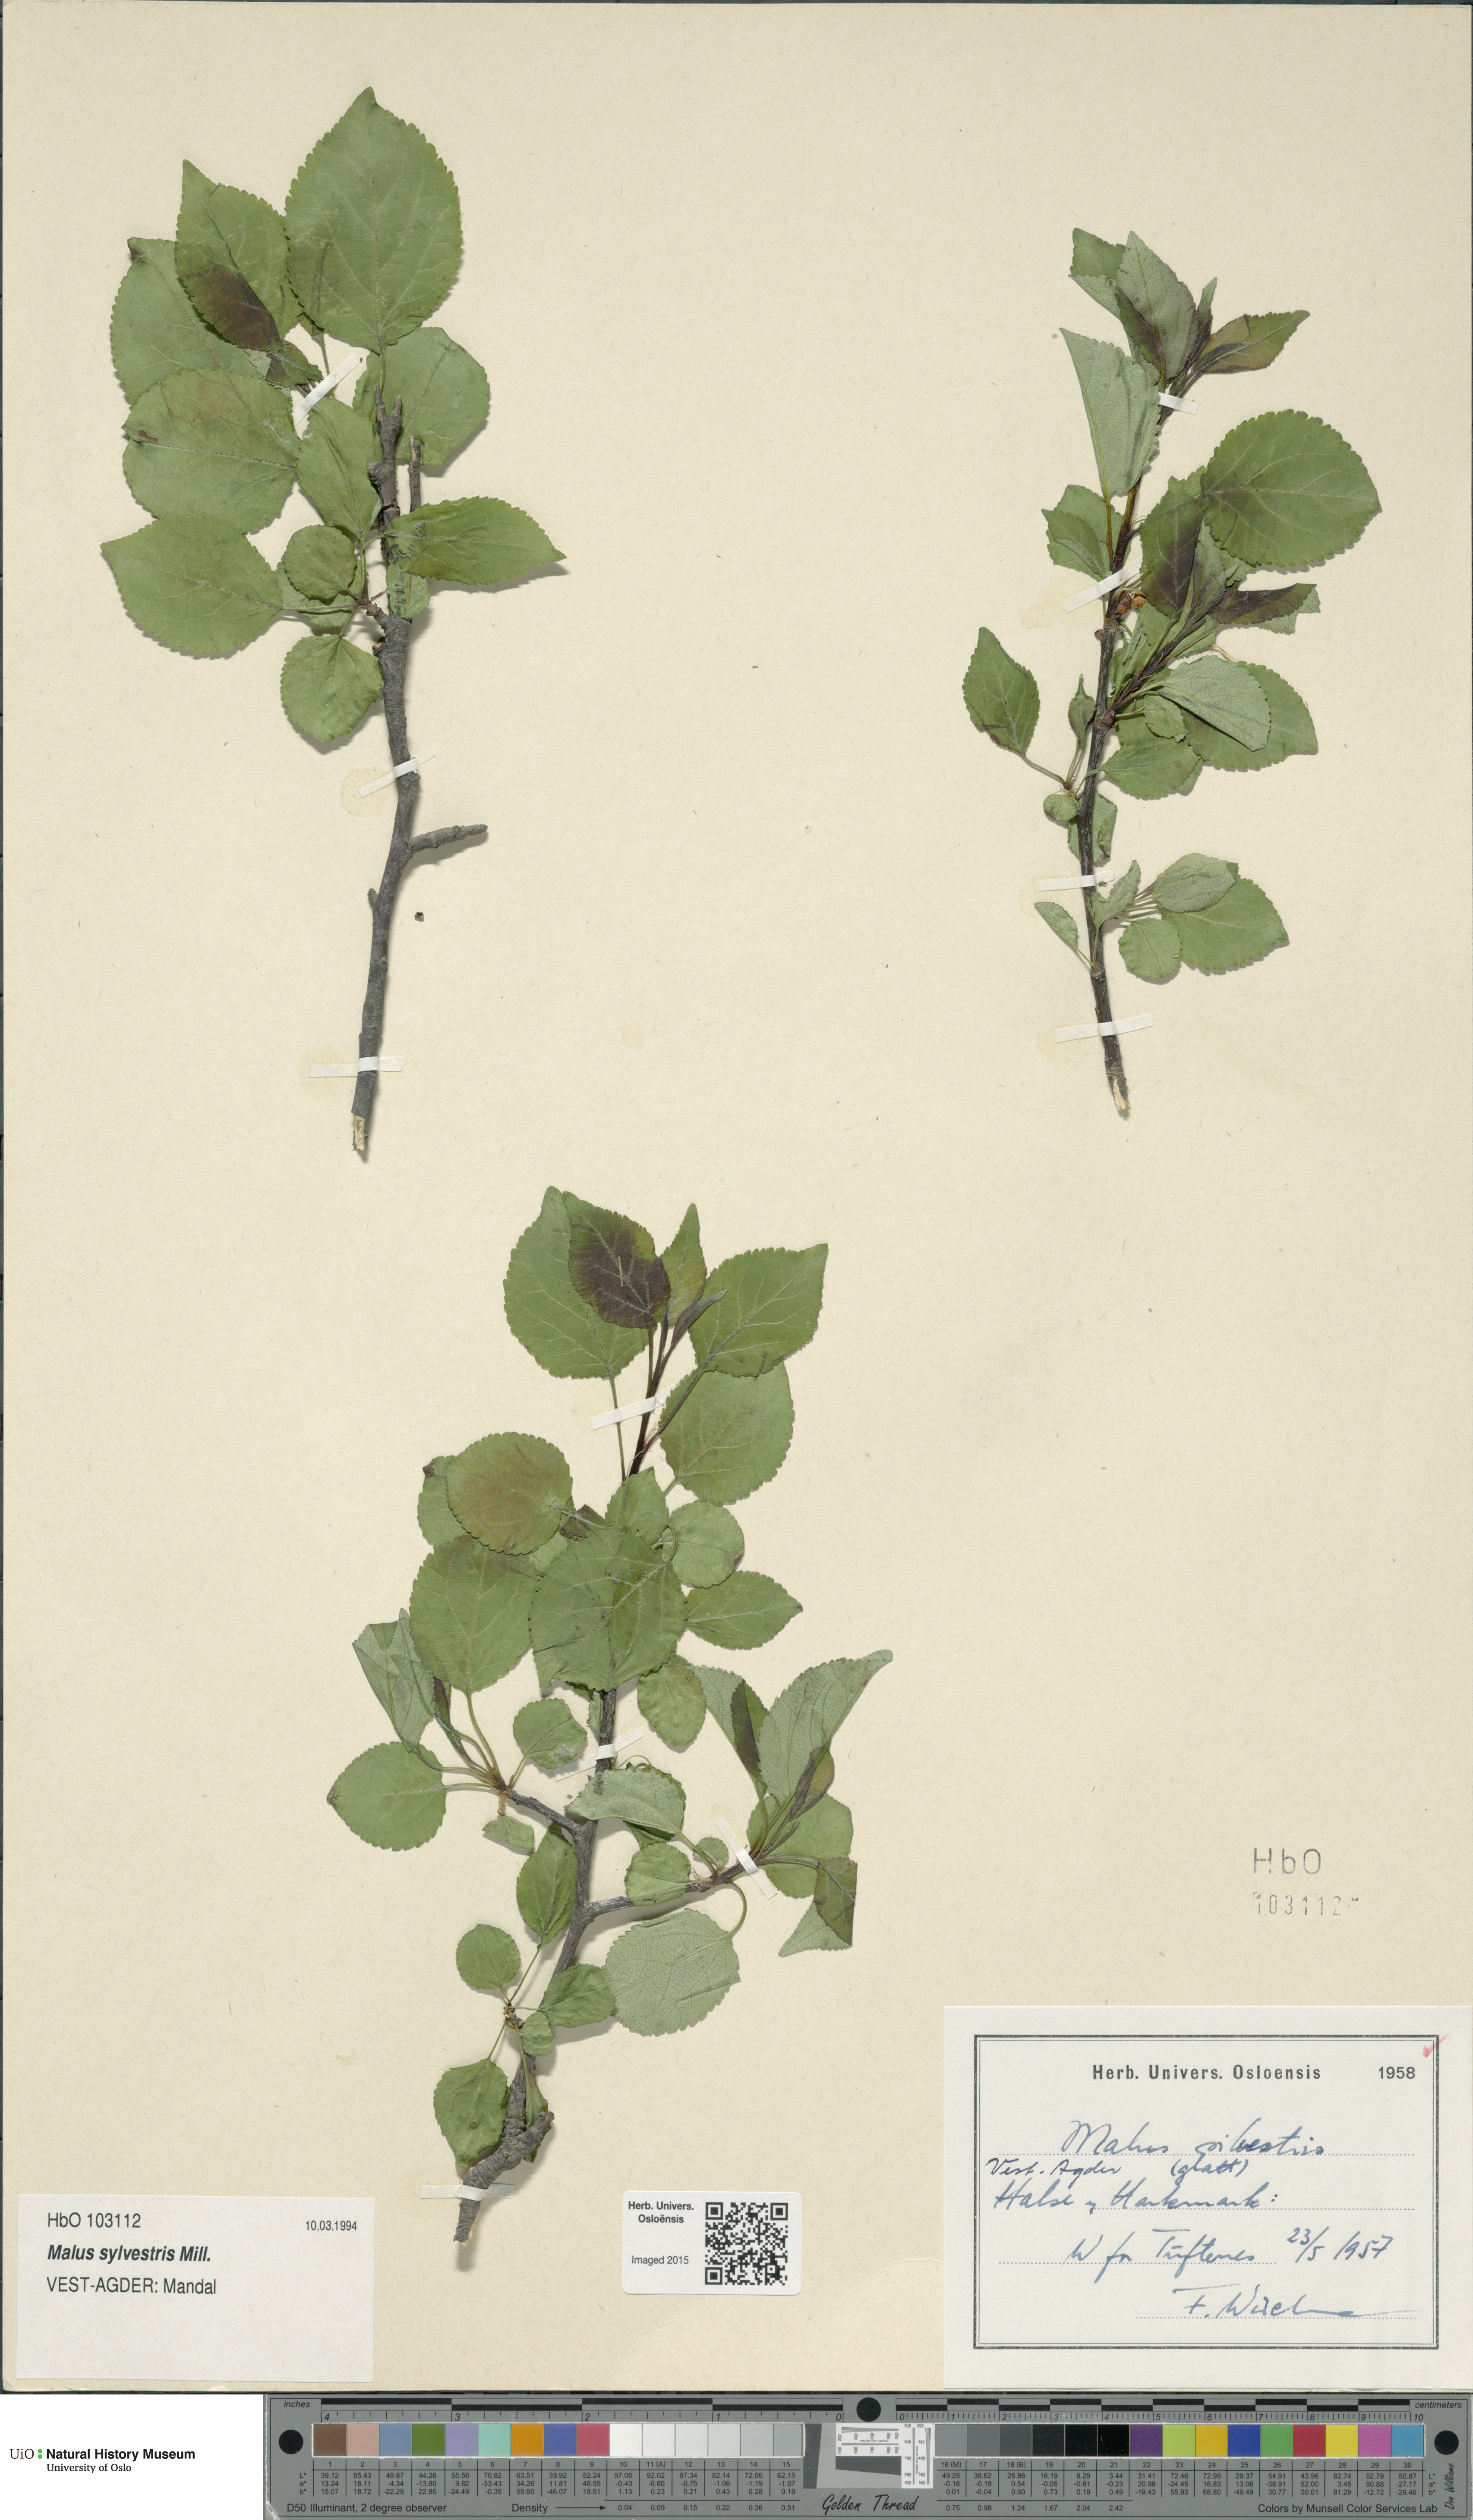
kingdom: Plantae
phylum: Tracheophyta
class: Magnoliopsida
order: Rosales
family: Rosaceae
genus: Malus
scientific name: Malus sylvestris
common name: Crab apple
